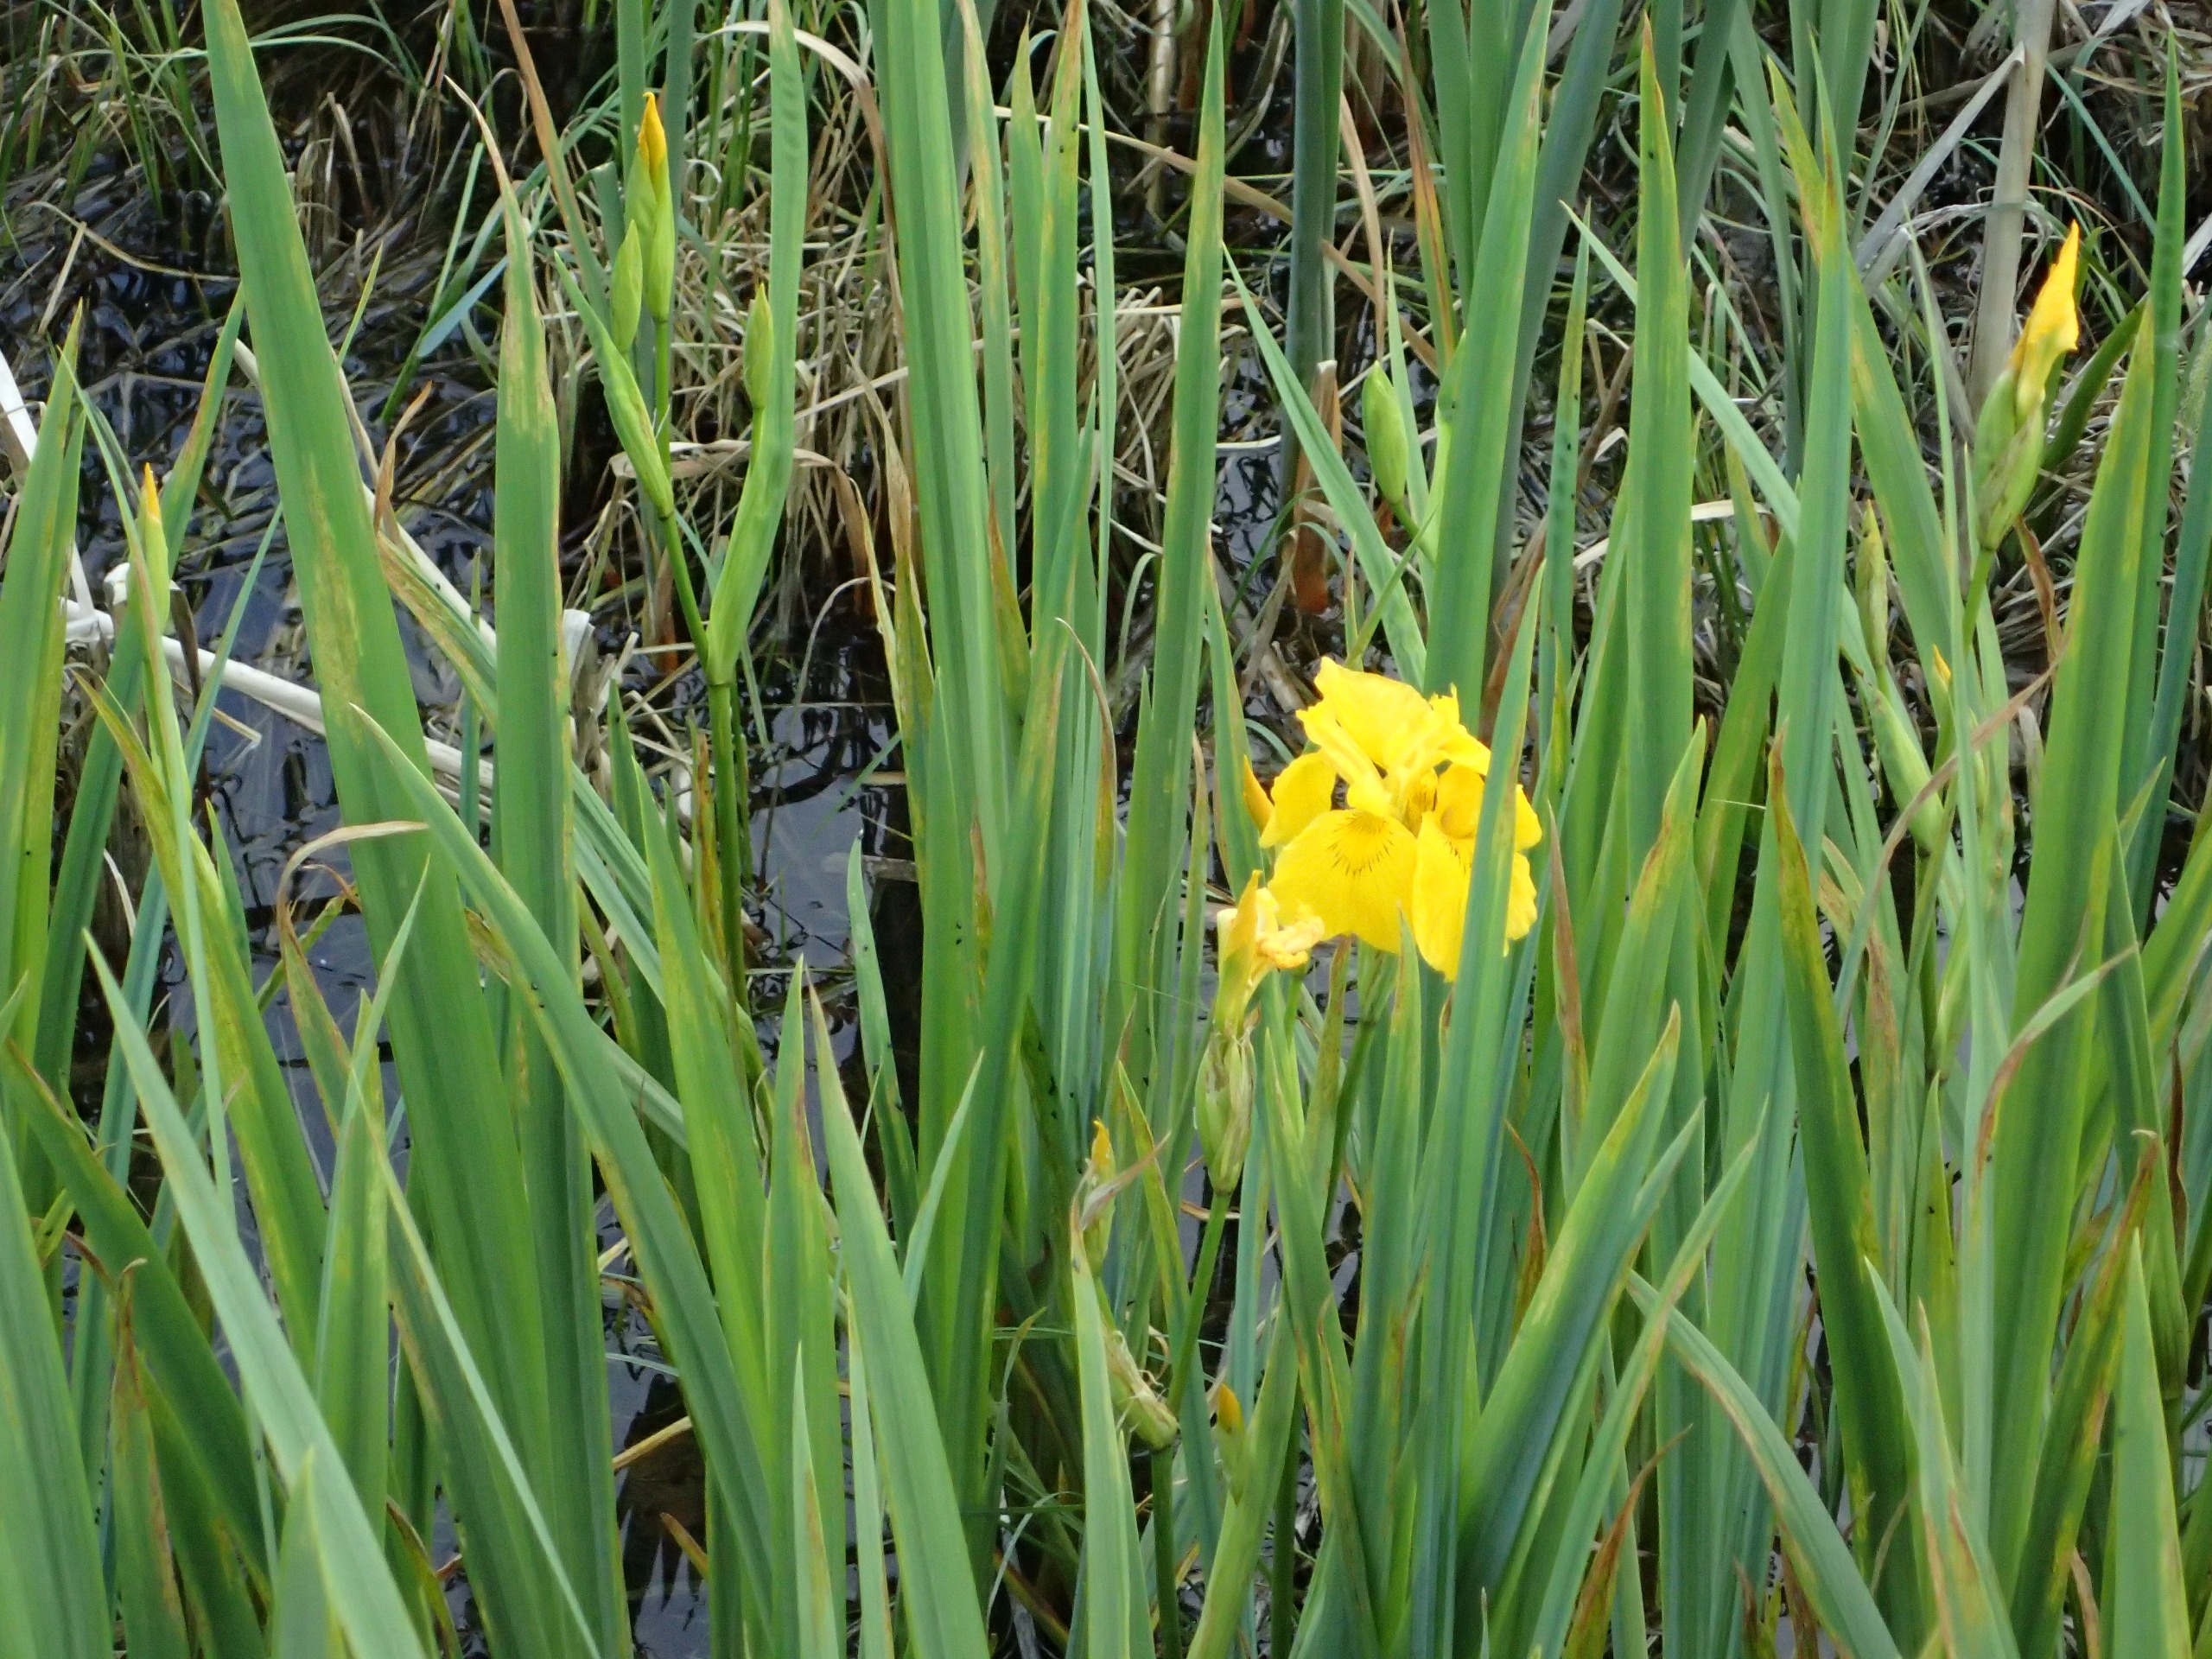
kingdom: Plantae
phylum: Tracheophyta
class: Liliopsida
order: Asparagales
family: Iridaceae
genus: Iris
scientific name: Iris pseudacorus
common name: Gul iris
